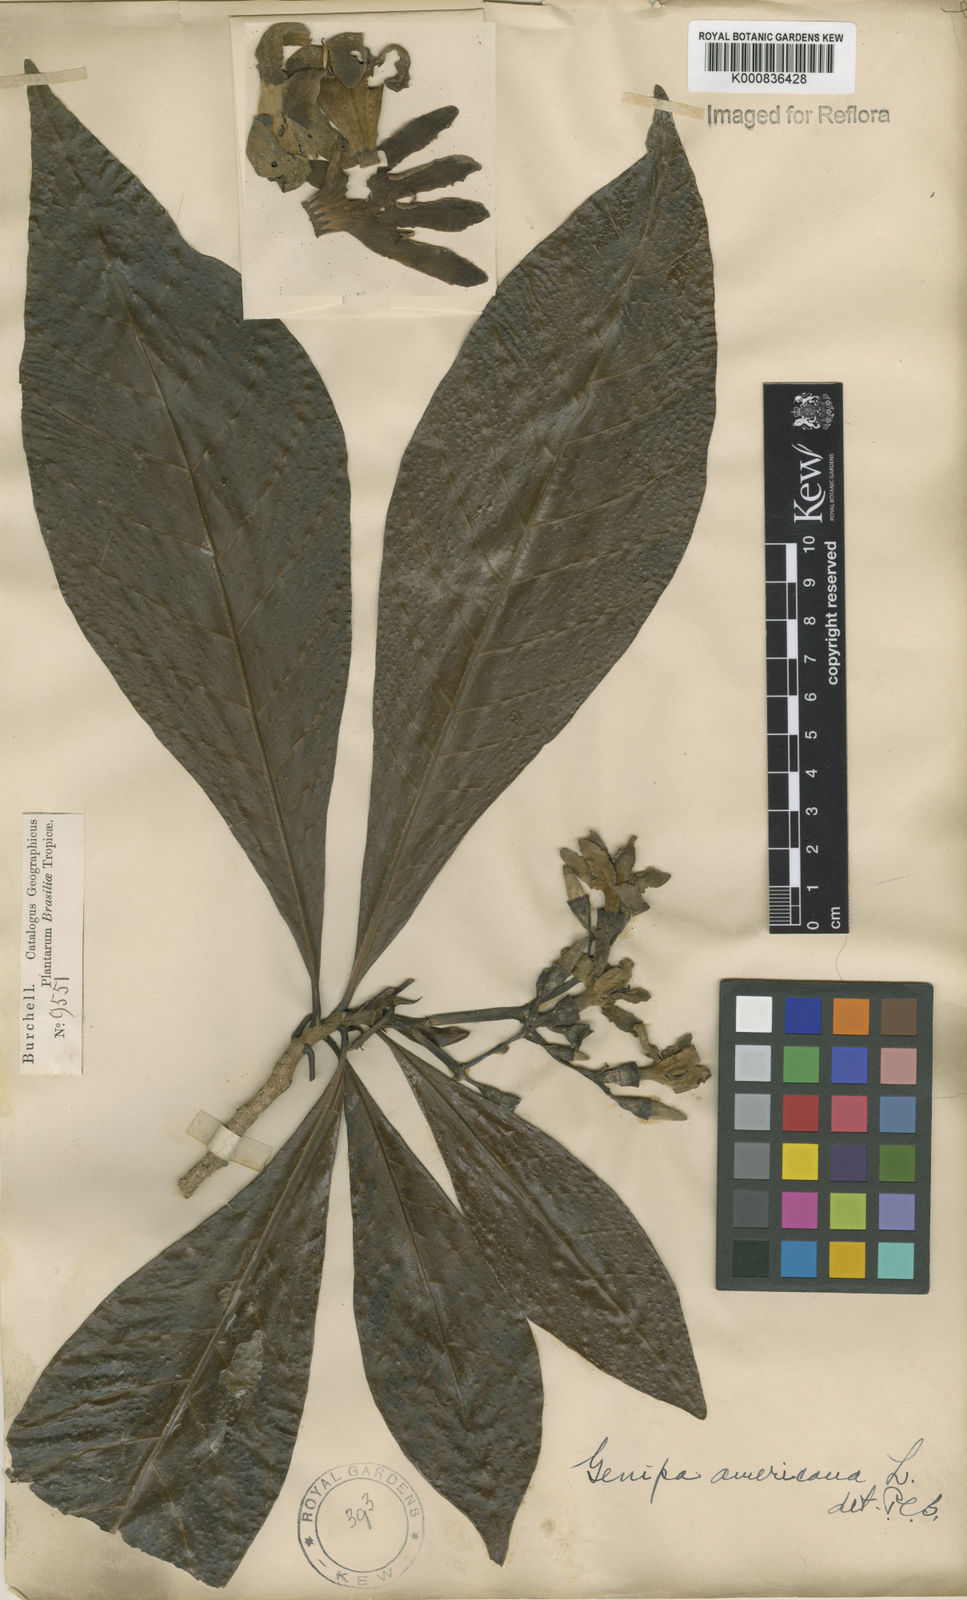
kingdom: Plantae
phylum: Tracheophyta
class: Magnoliopsida
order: Gentianales
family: Rubiaceae
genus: Genipa
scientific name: Genipa americana
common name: Genipap
